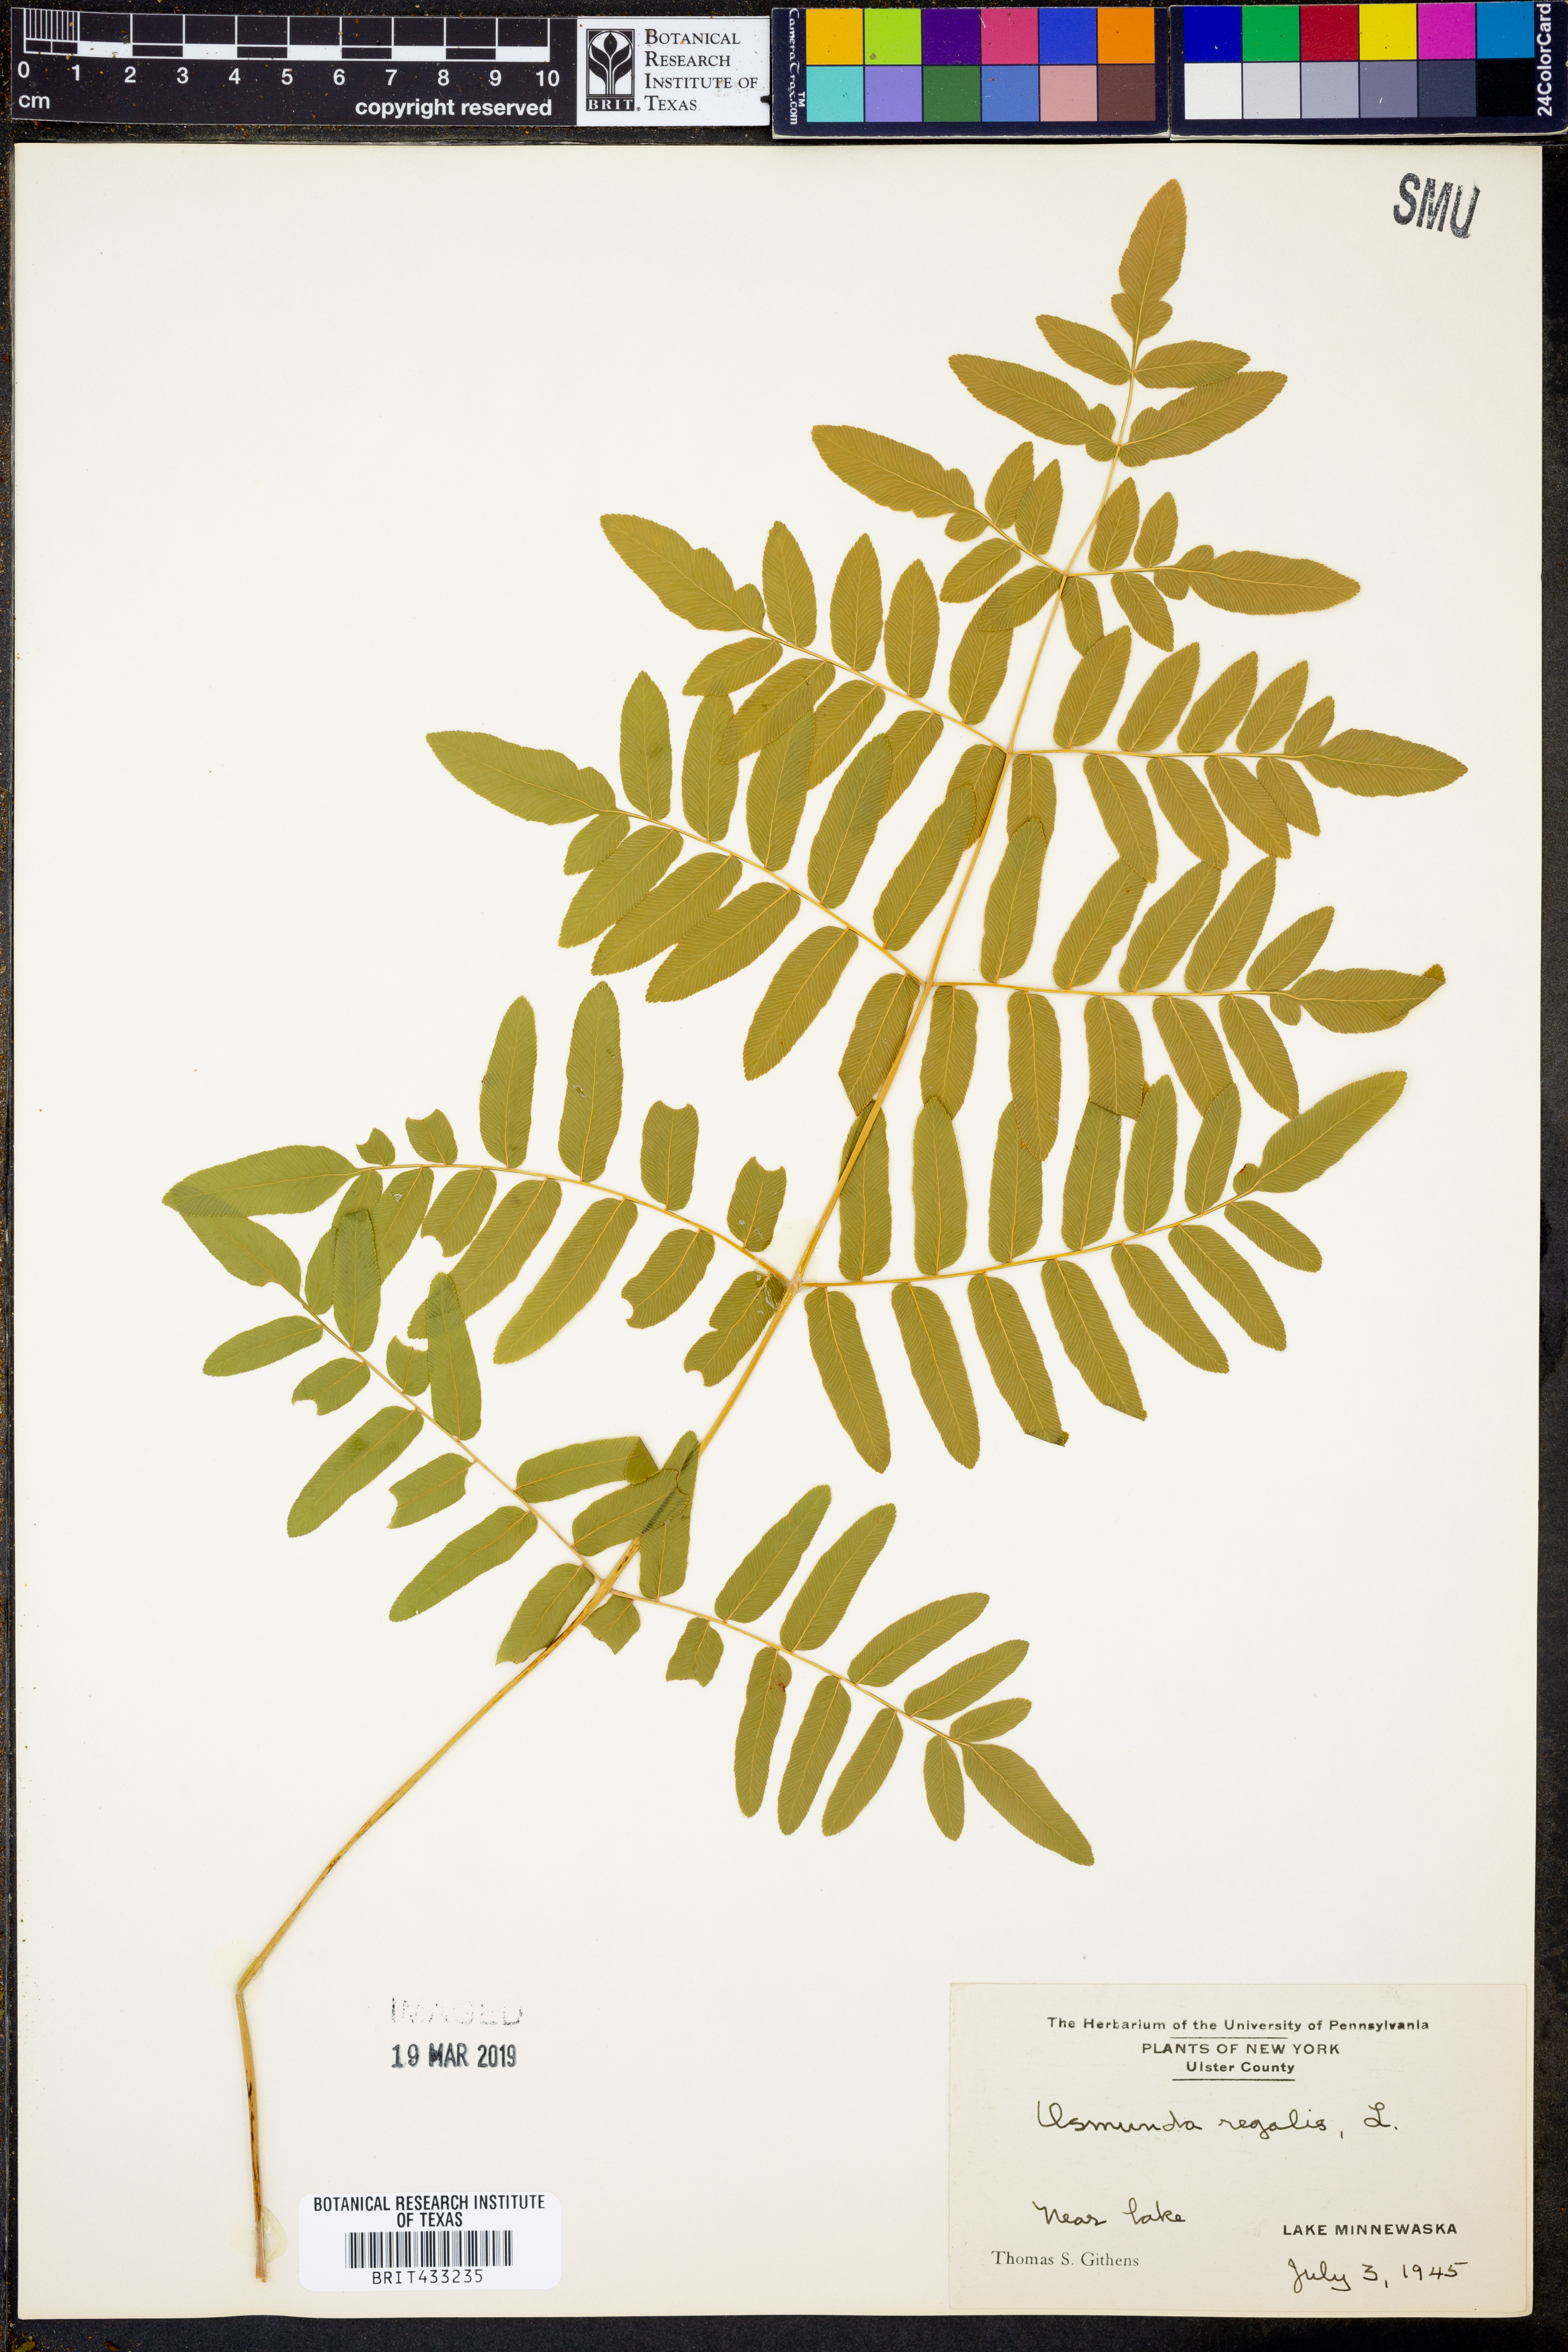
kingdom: Plantae
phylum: Tracheophyta
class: Polypodiopsida
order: Osmundales
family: Osmundaceae
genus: Osmunda
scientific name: Osmunda regalis
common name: Royal fern
